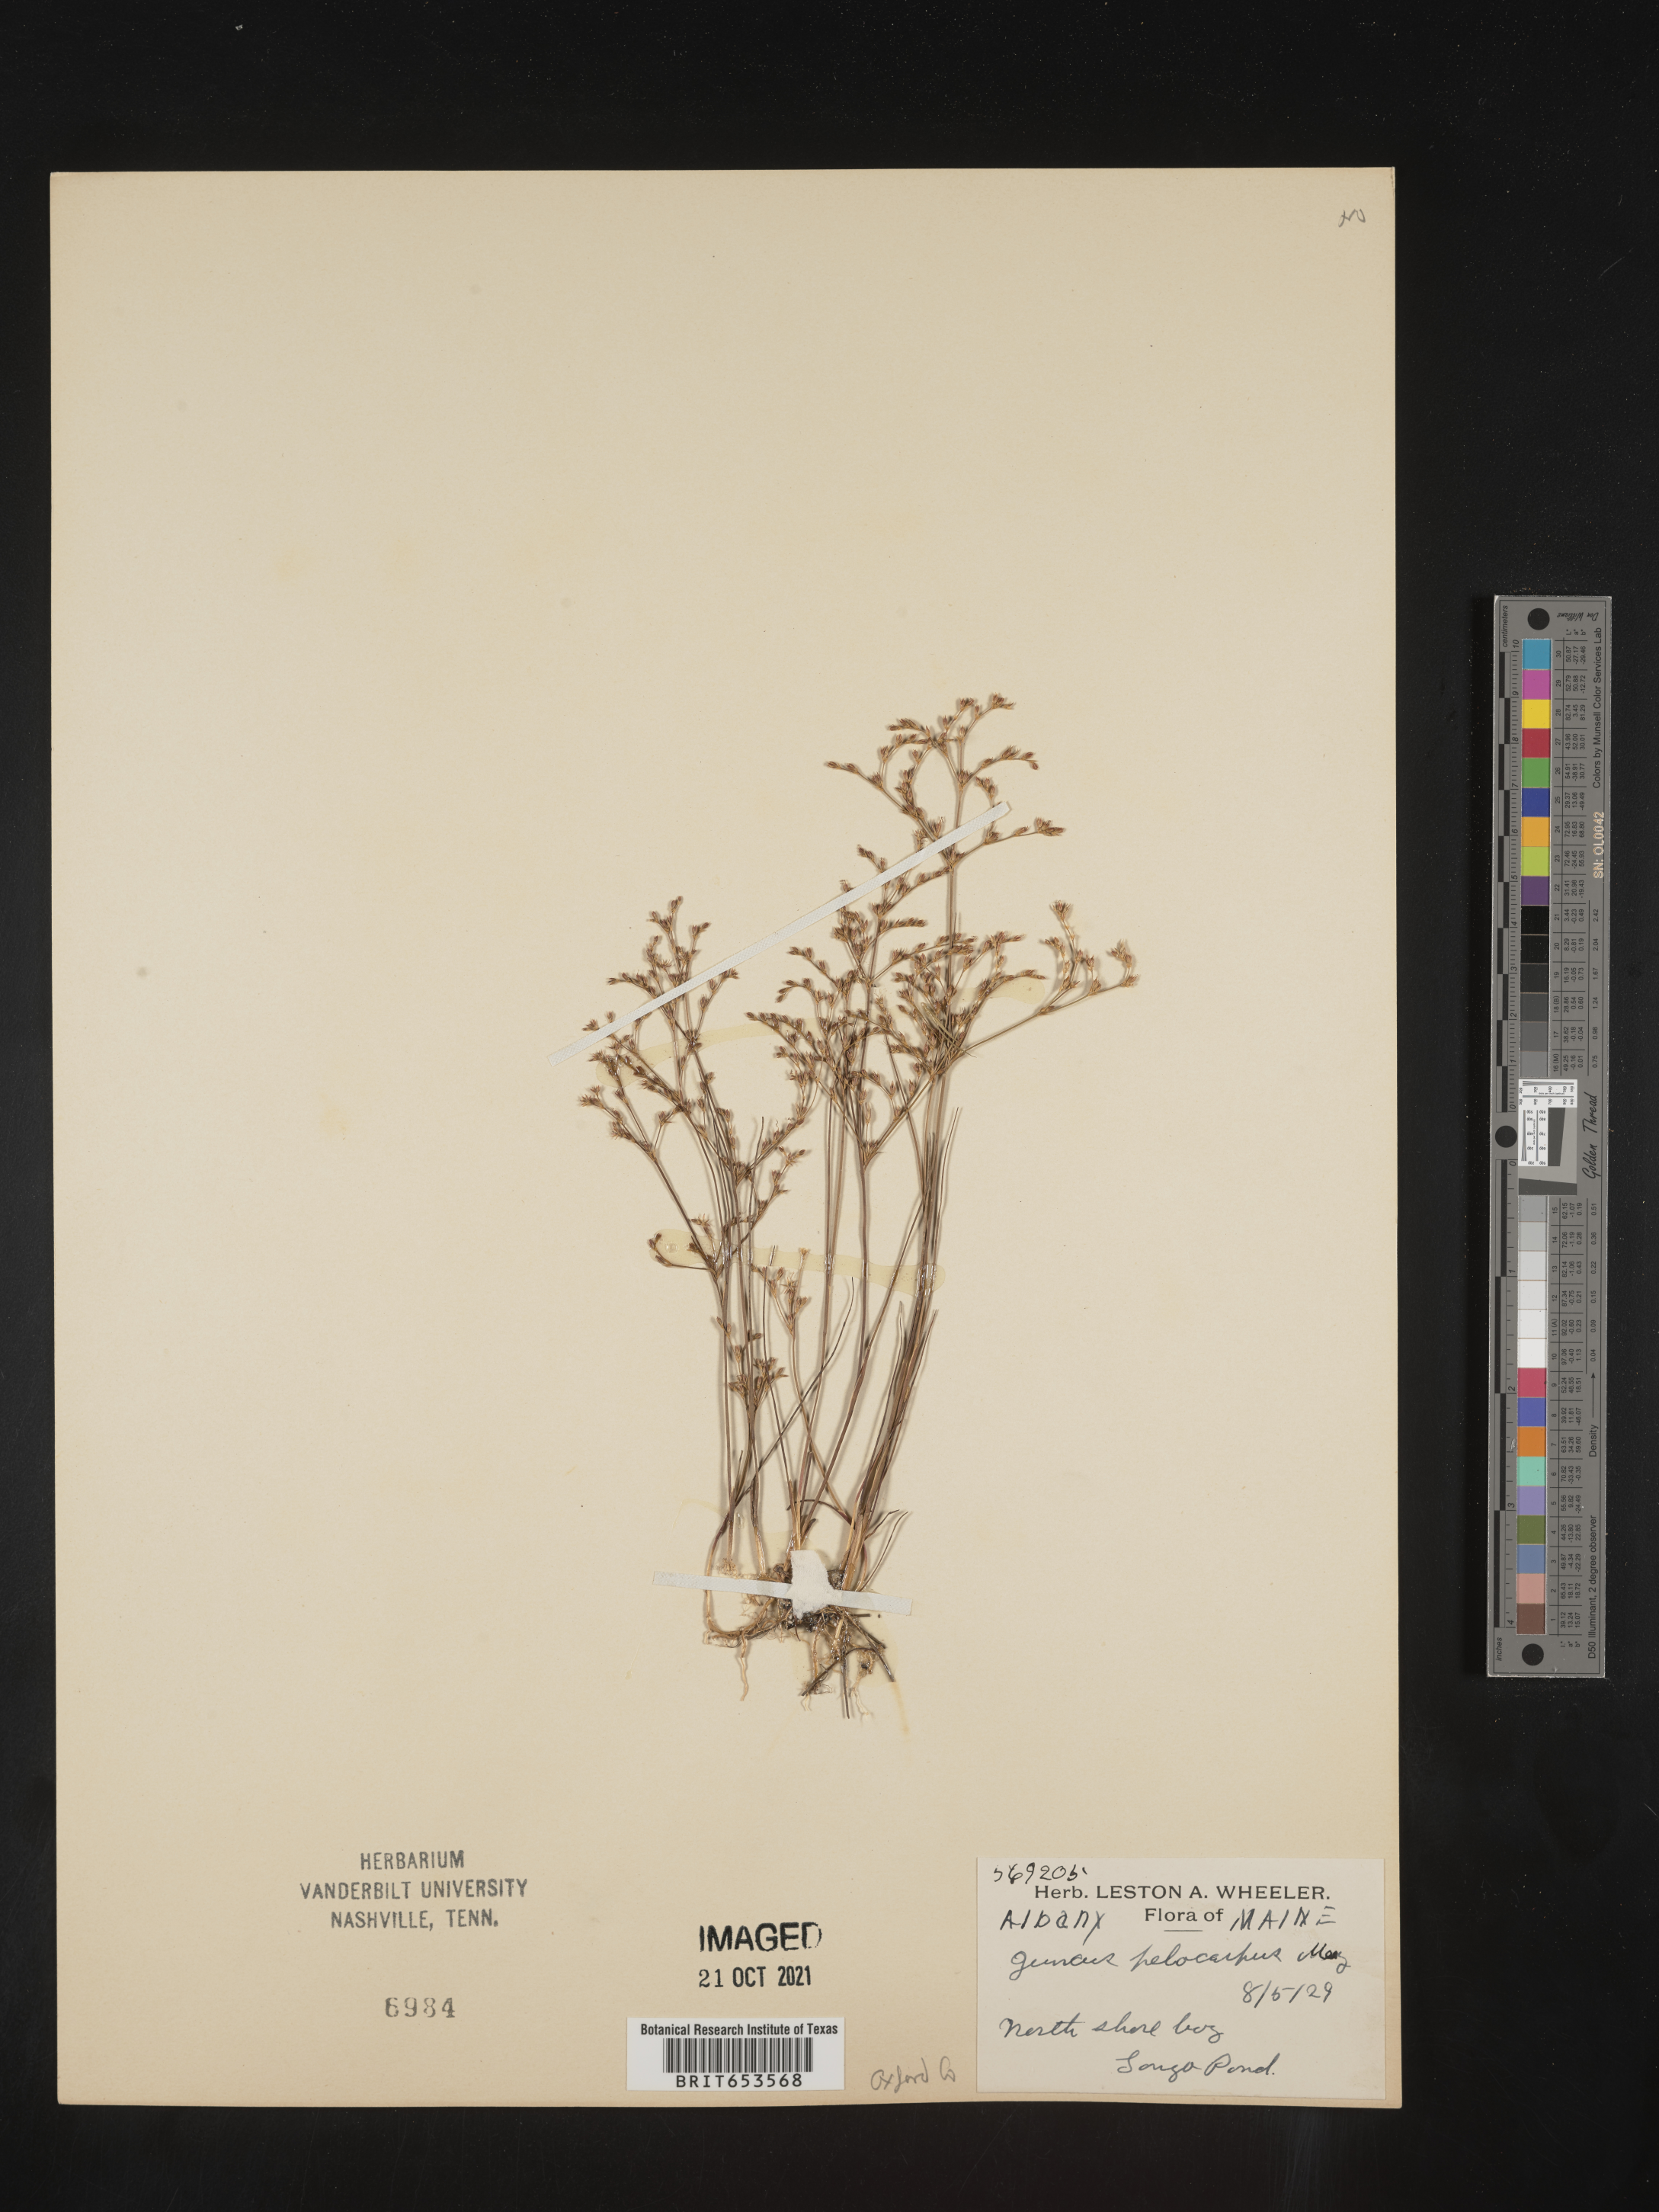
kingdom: Plantae
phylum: Tracheophyta
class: Liliopsida
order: Poales
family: Juncaceae
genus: Juncus
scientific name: Juncus pelocarpus
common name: Brown-fruited rush
